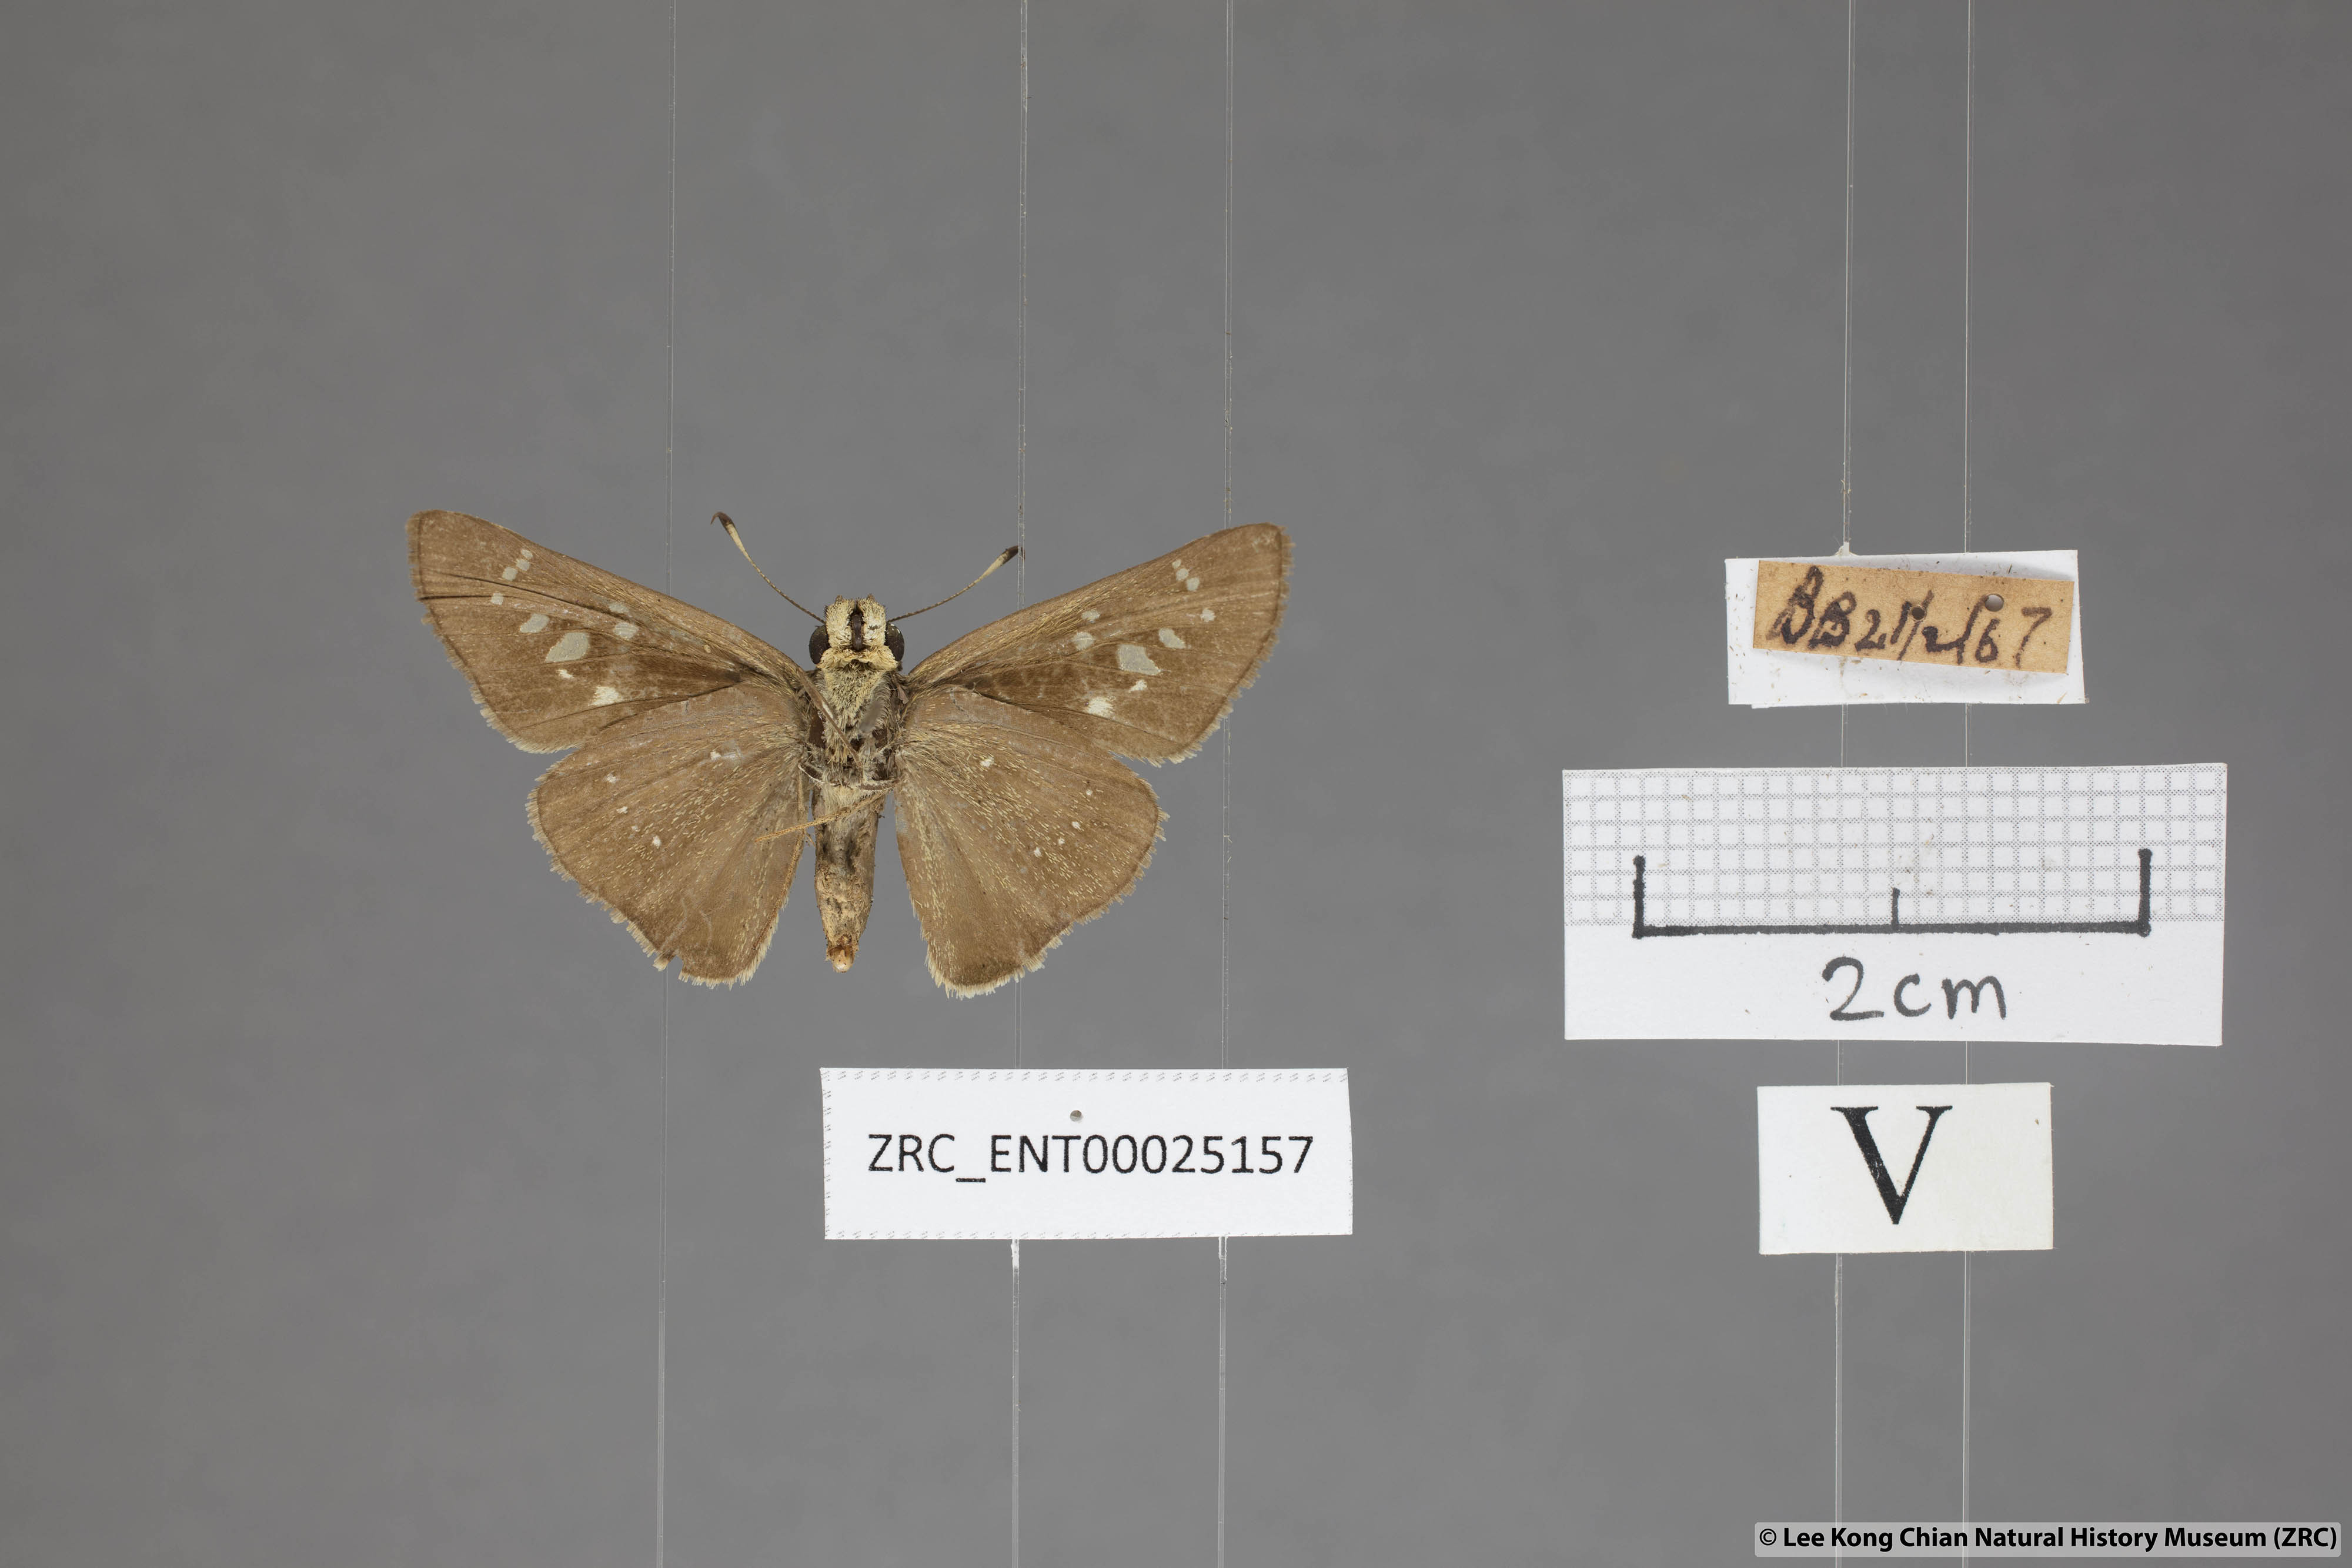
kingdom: Animalia
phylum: Arthropoda
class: Insecta
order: Lepidoptera
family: Hesperiidae
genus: Pelopidas
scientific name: Pelopidas mathias
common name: Black-branded swift
